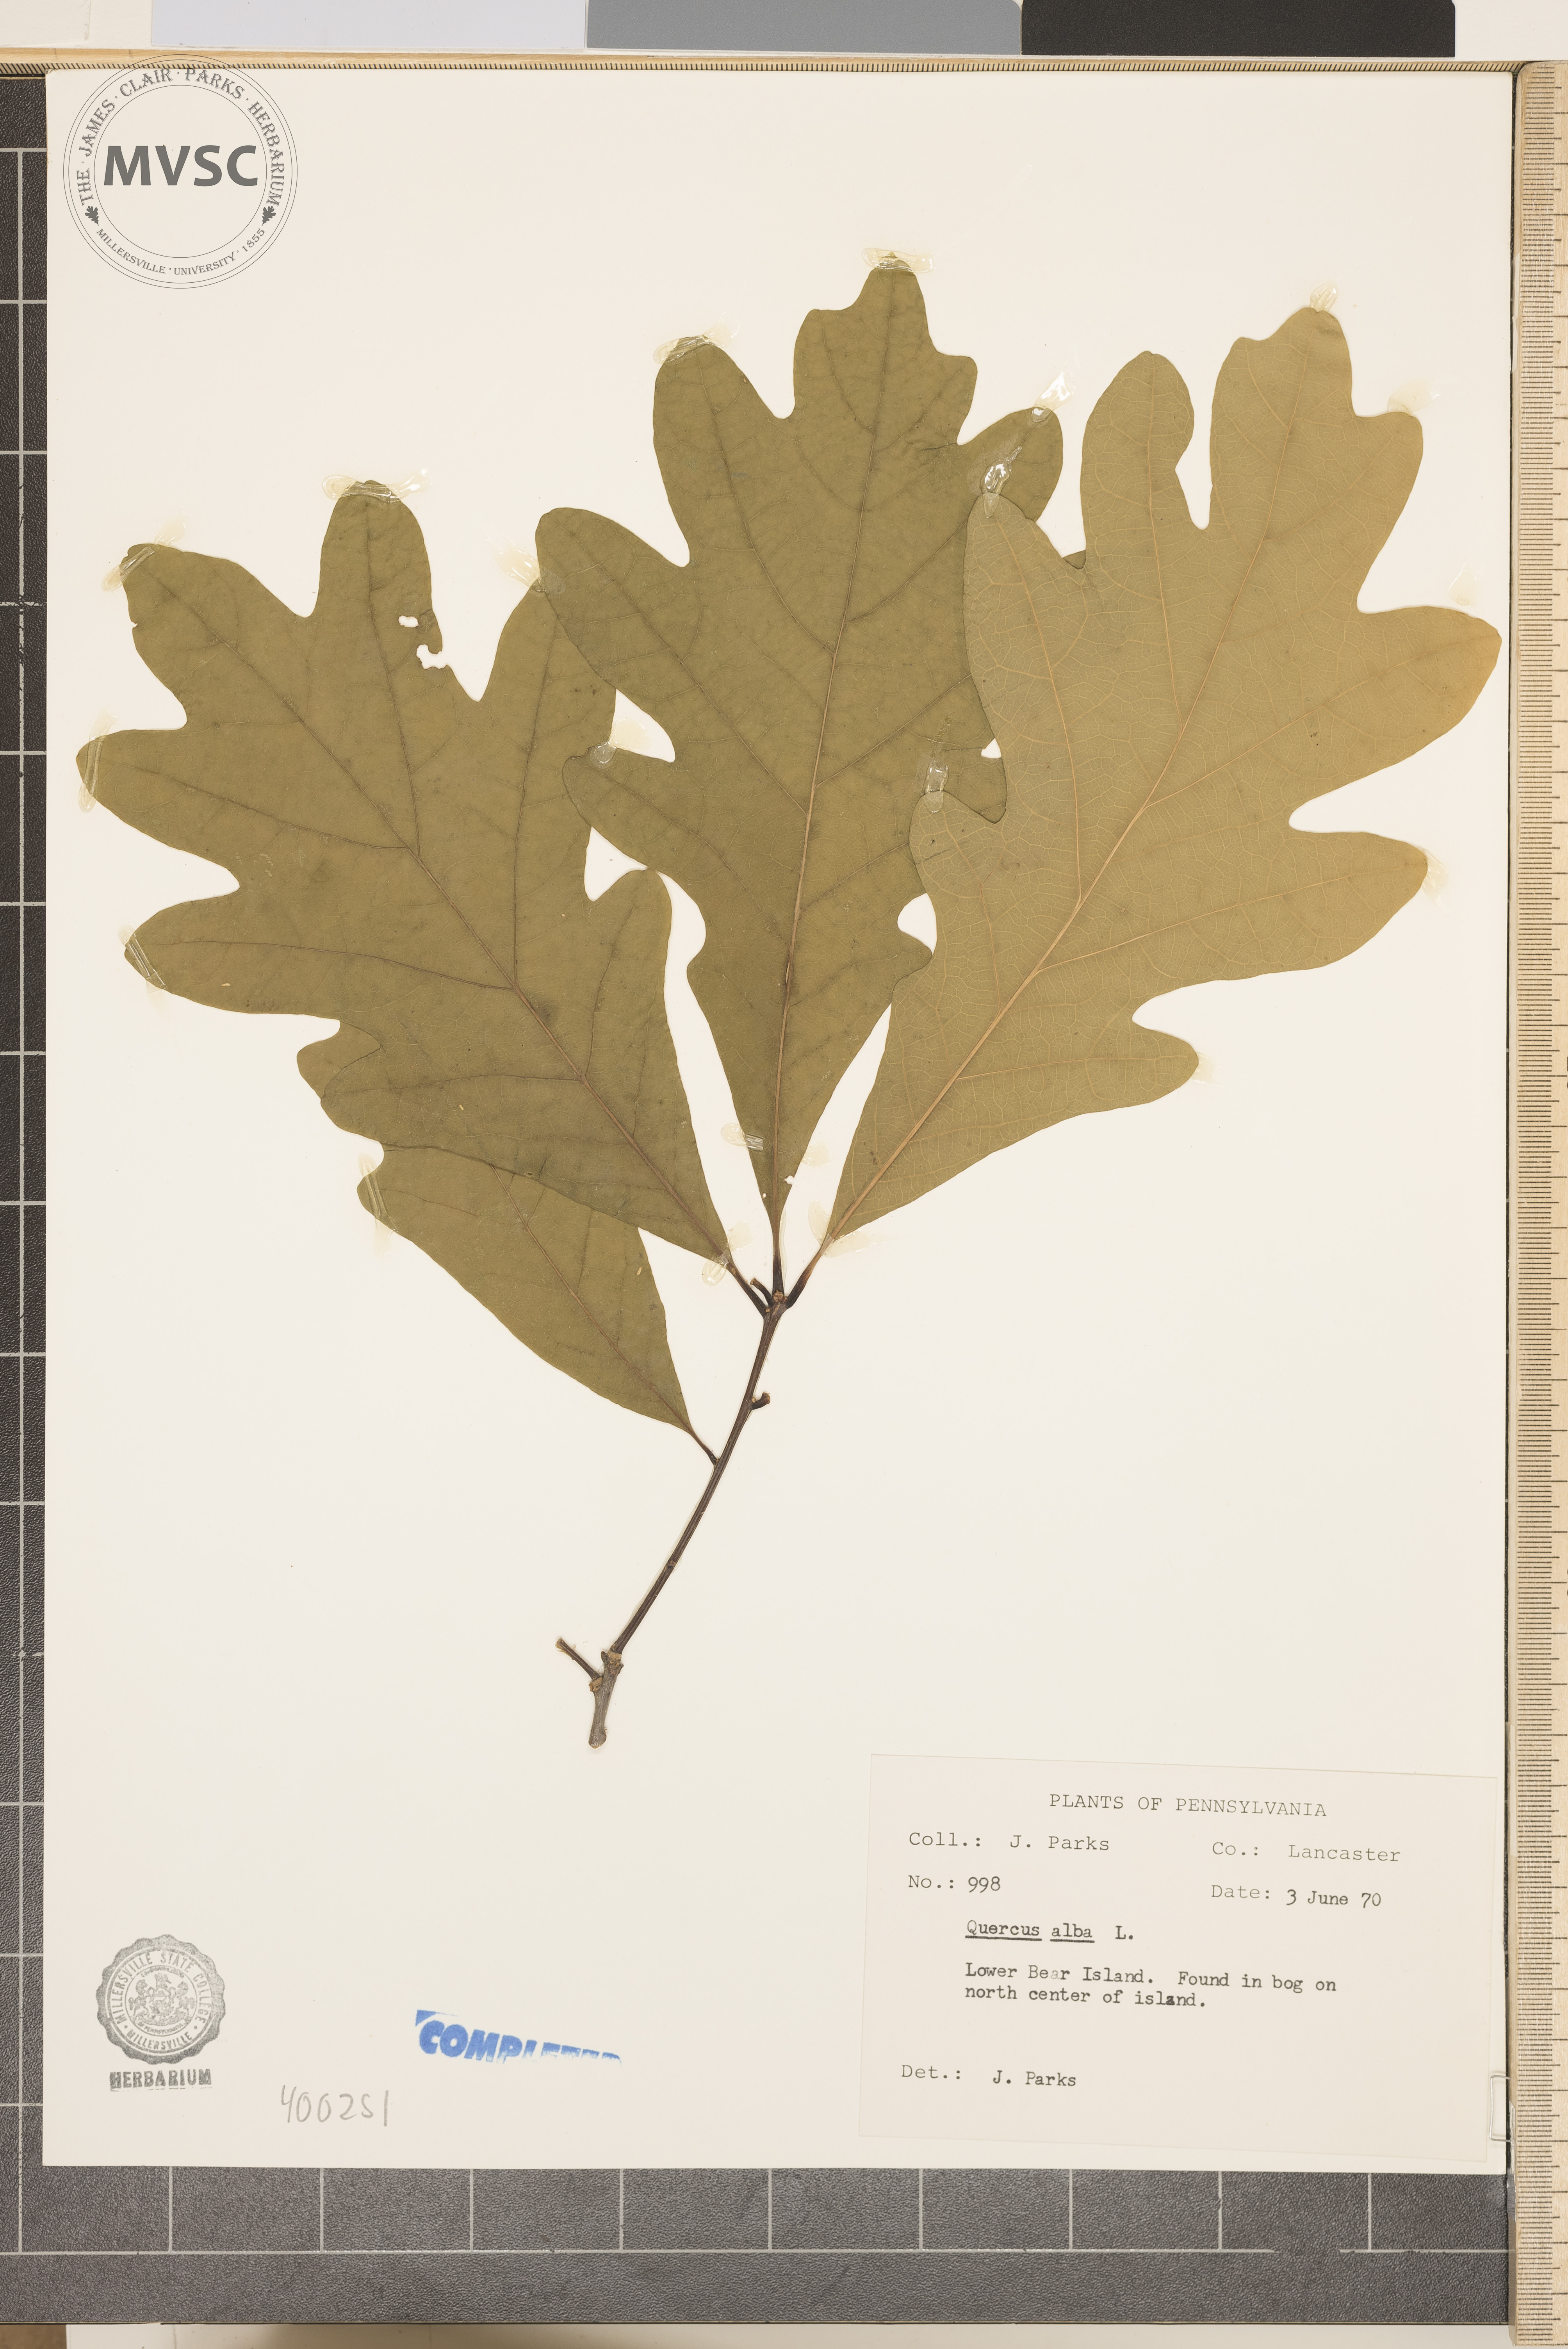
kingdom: Plantae
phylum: Tracheophyta
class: Magnoliopsida
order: Fagales
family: Fagaceae
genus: Quercus
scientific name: Quercus alba
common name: white oak
